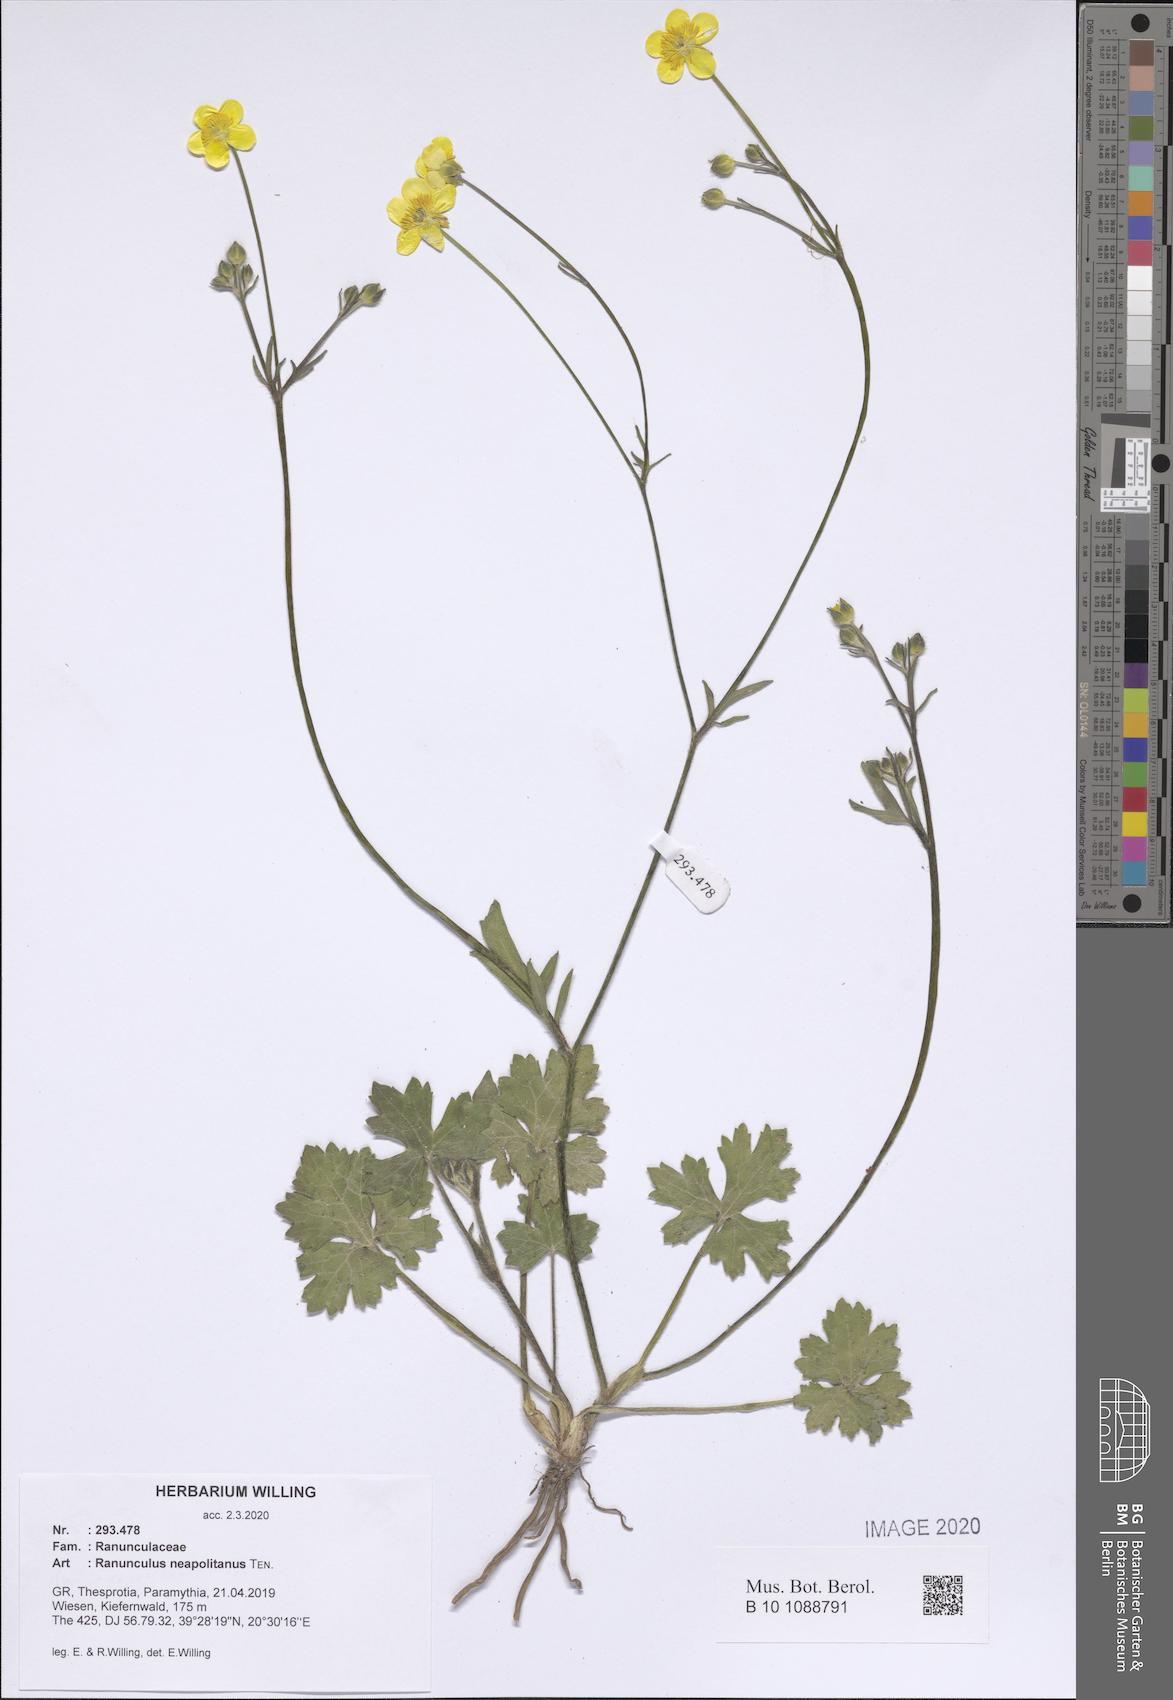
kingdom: Plantae
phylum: Tracheophyta
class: Magnoliopsida
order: Ranunculales
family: Ranunculaceae
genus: Ranunculus
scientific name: Ranunculus neapolitanus
